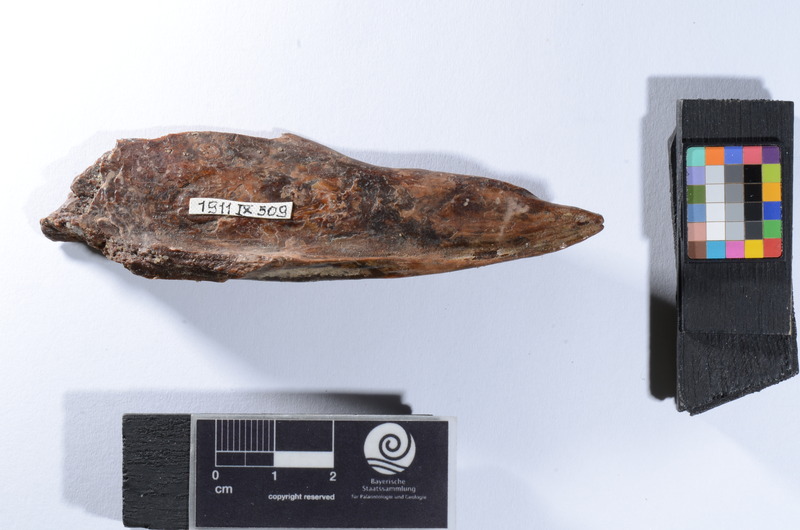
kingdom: Animalia
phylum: Chordata
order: Perciformes
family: Latidae
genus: Lates
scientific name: Lates niloticus
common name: Nile perch
